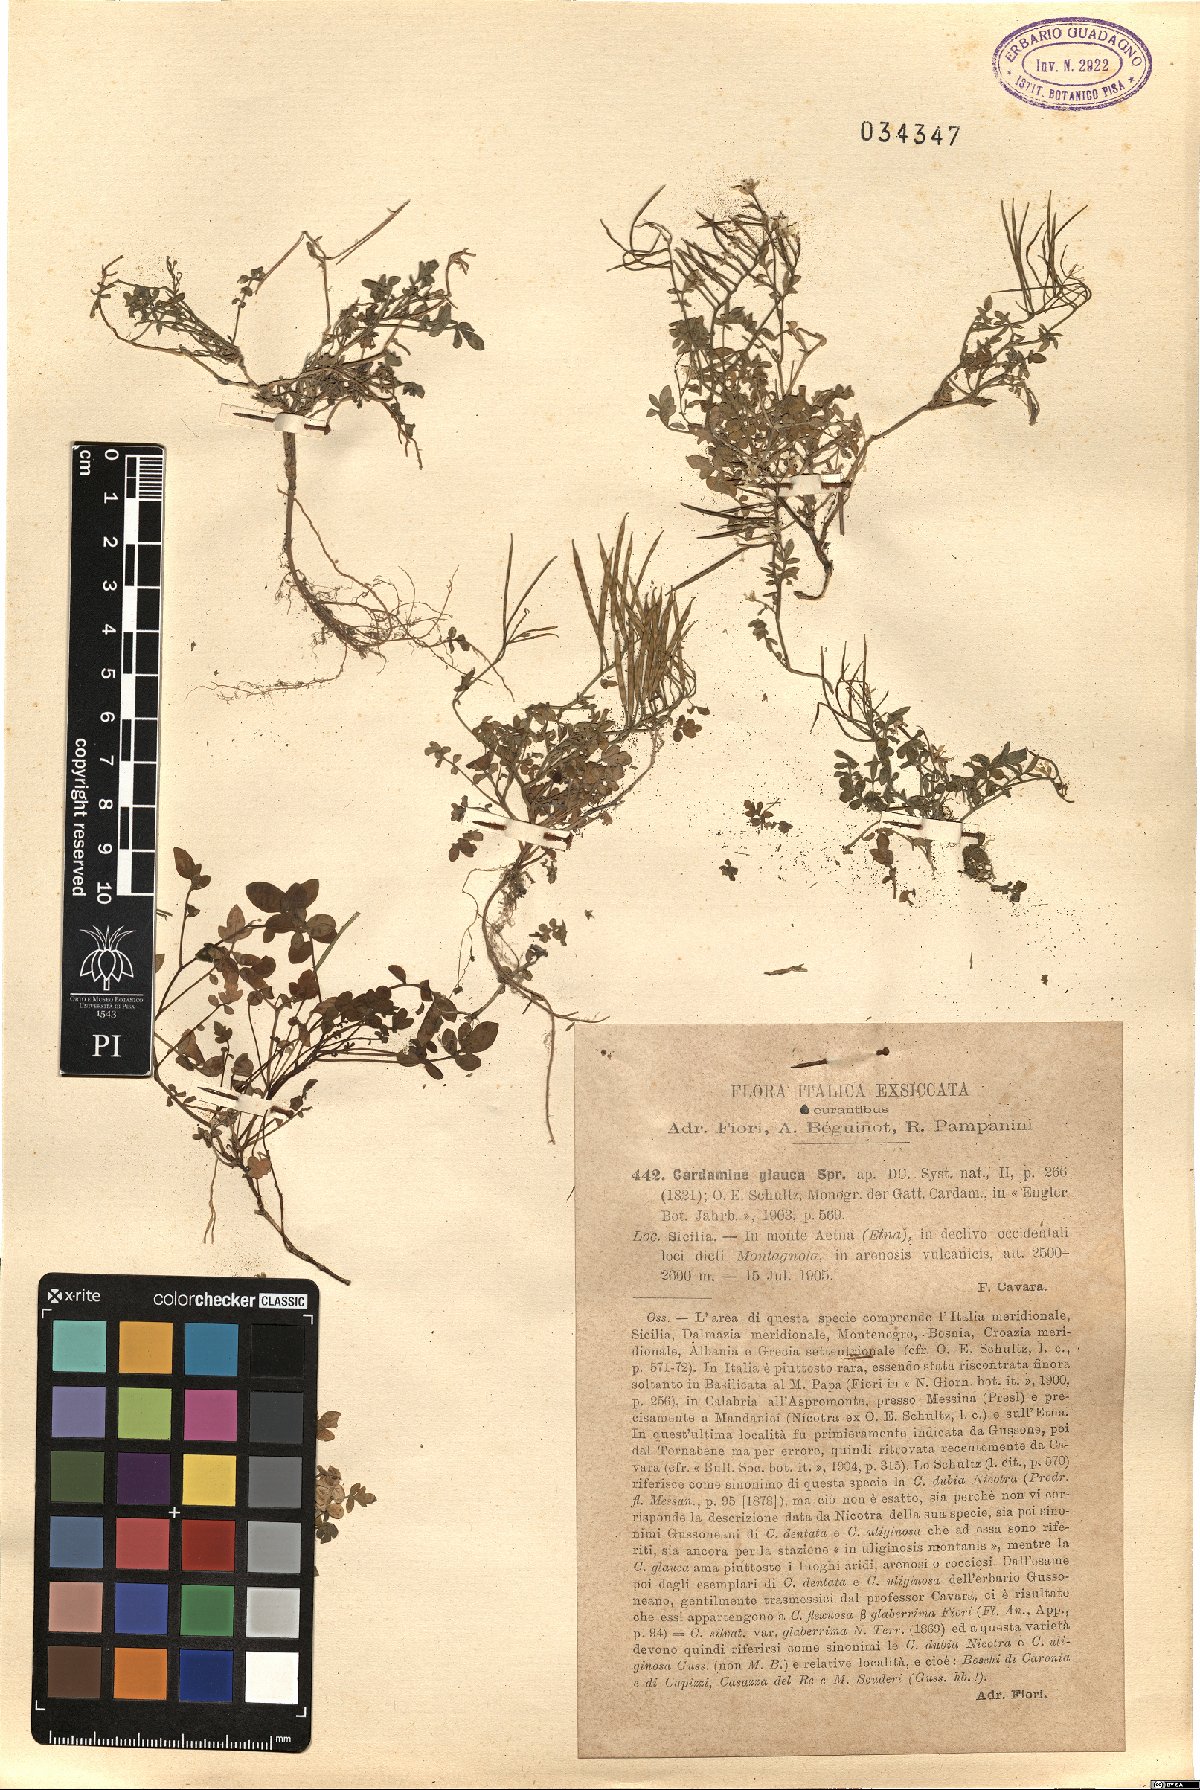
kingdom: Plantae
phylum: Tracheophyta
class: Magnoliopsida
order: Brassicales
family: Brassicaceae
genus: Cardamine
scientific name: Cardamine glauca
